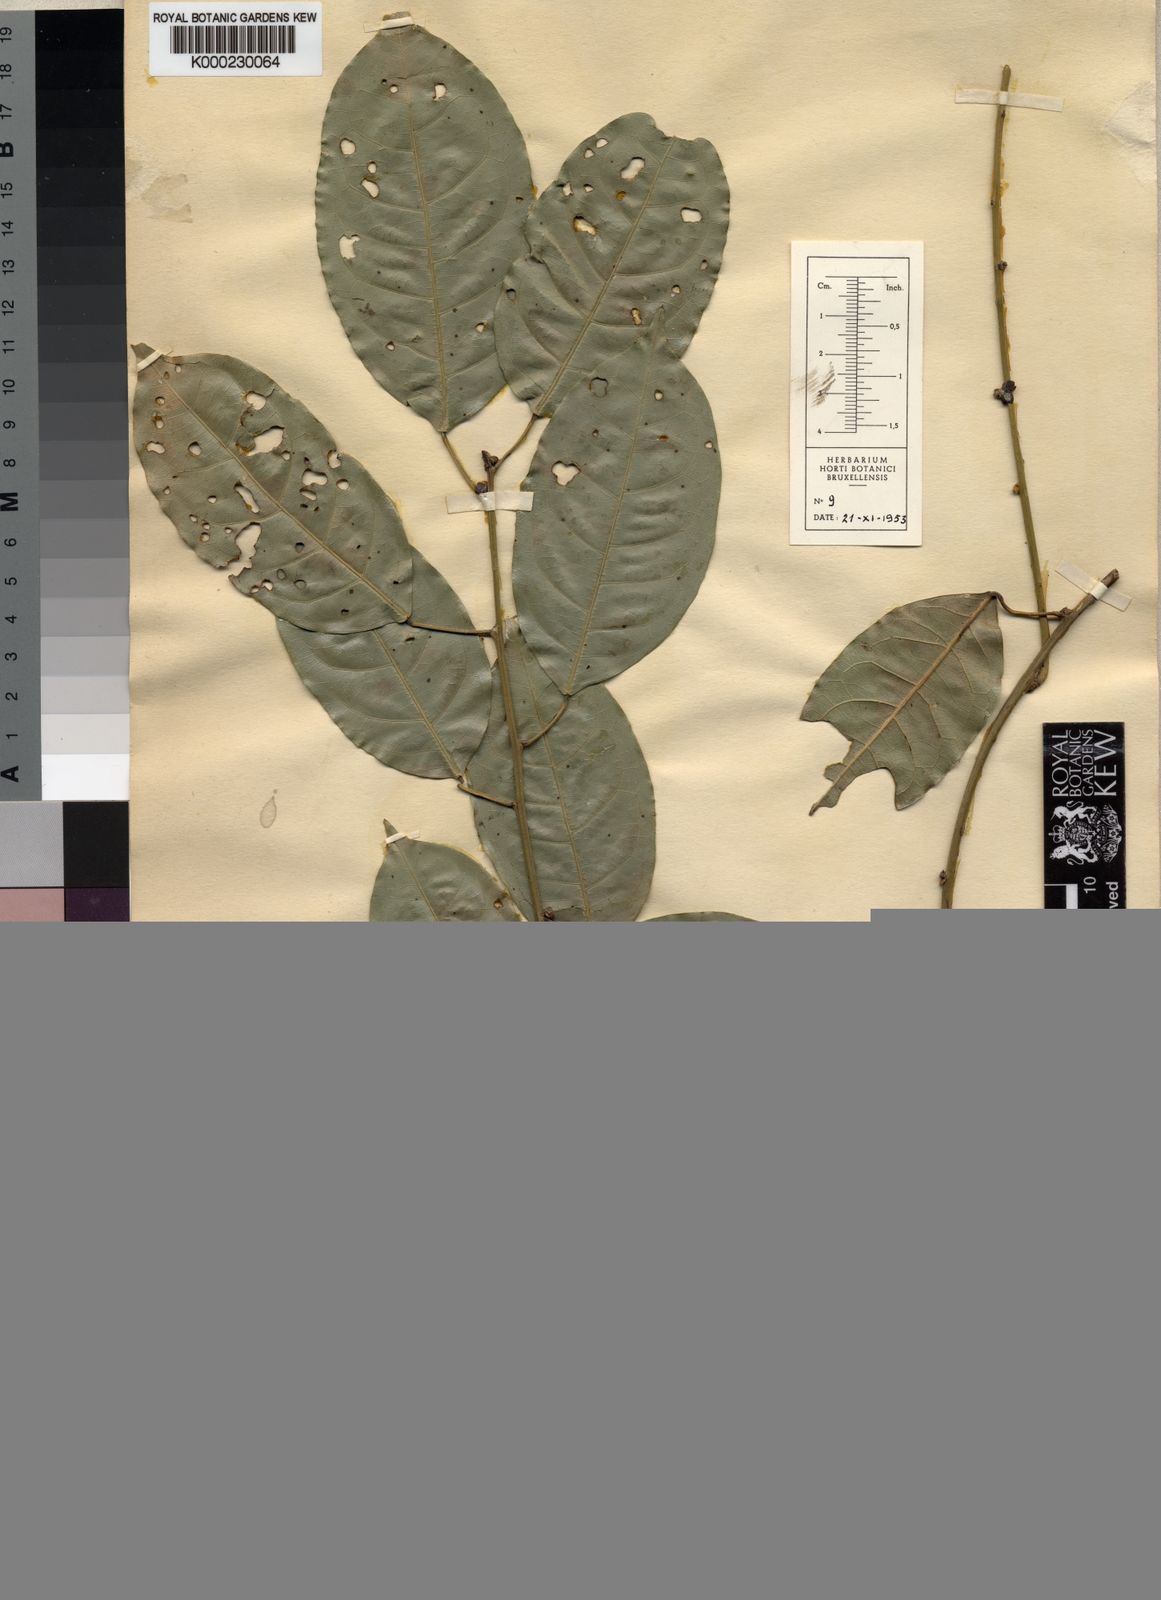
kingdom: Plantae
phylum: Tracheophyta
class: Magnoliopsida
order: Ranunculales
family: Menispermaceae
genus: Albertisia
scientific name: Albertisia glabra
